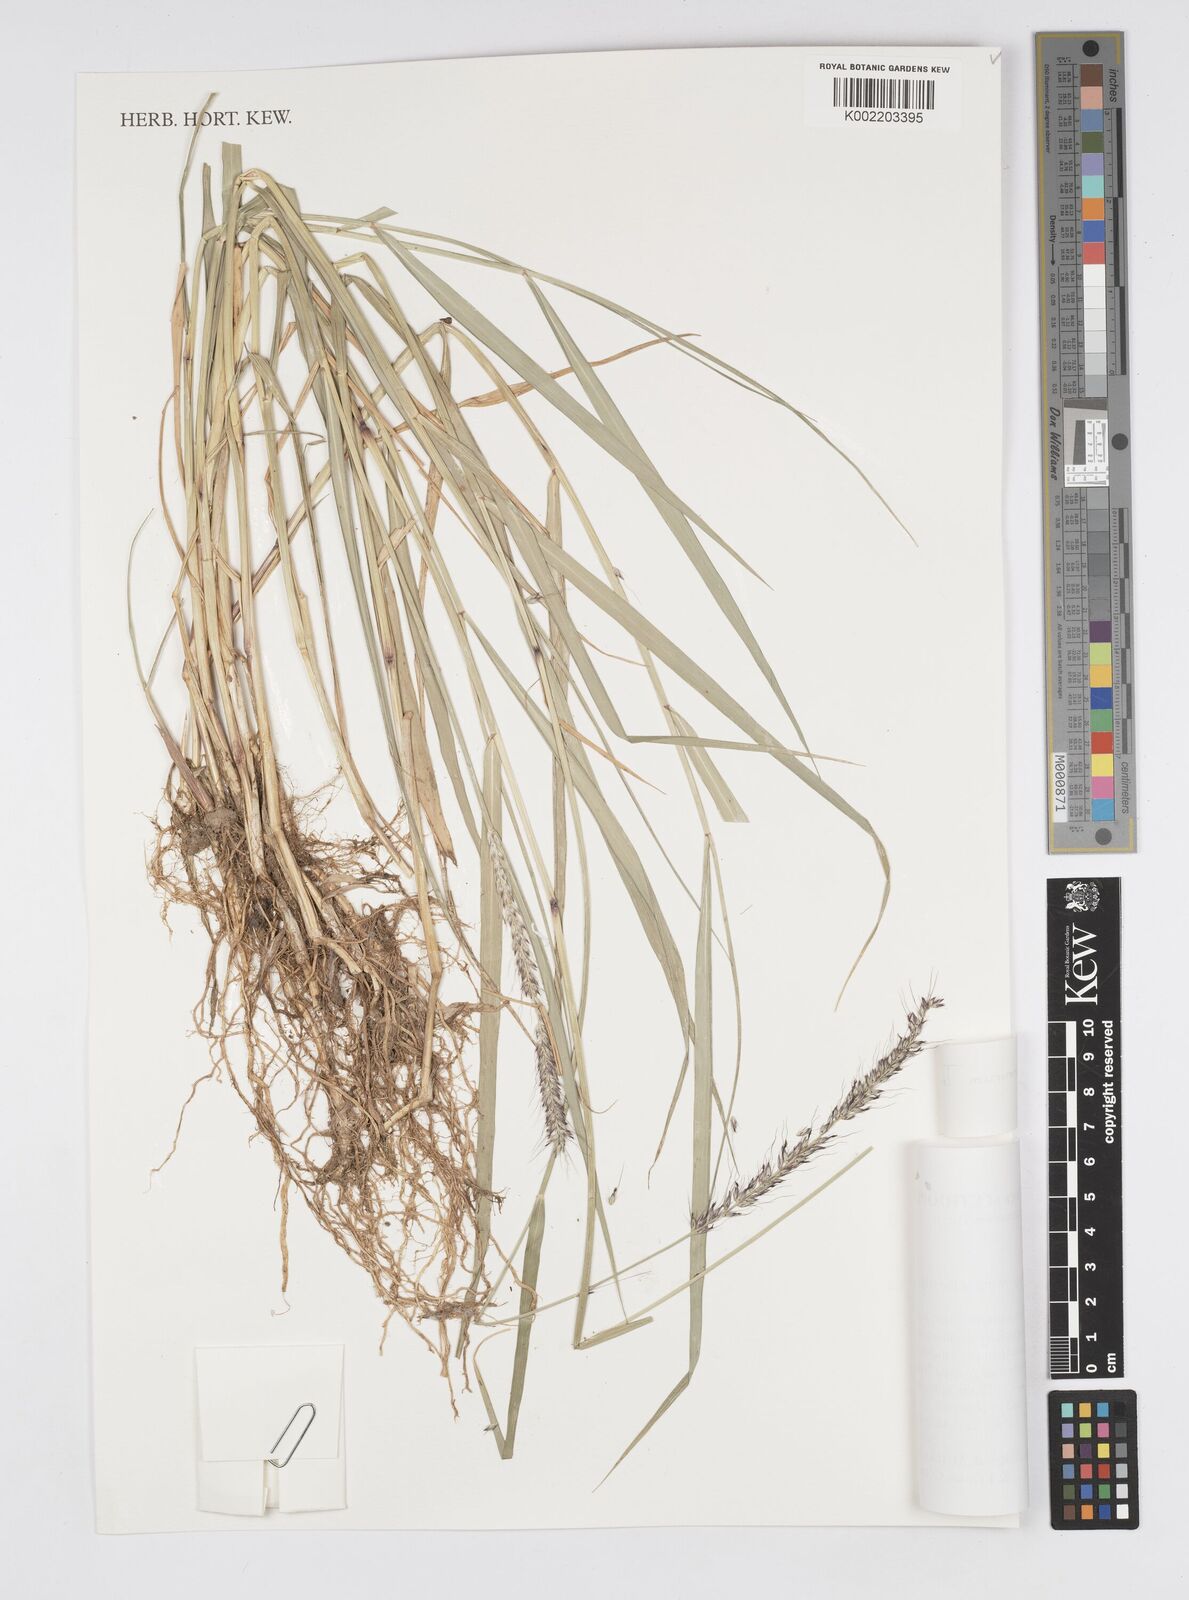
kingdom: Plantae
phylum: Tracheophyta
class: Liliopsida
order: Poales
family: Poaceae
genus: Cenchrus
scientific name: Cenchrus caudatus
